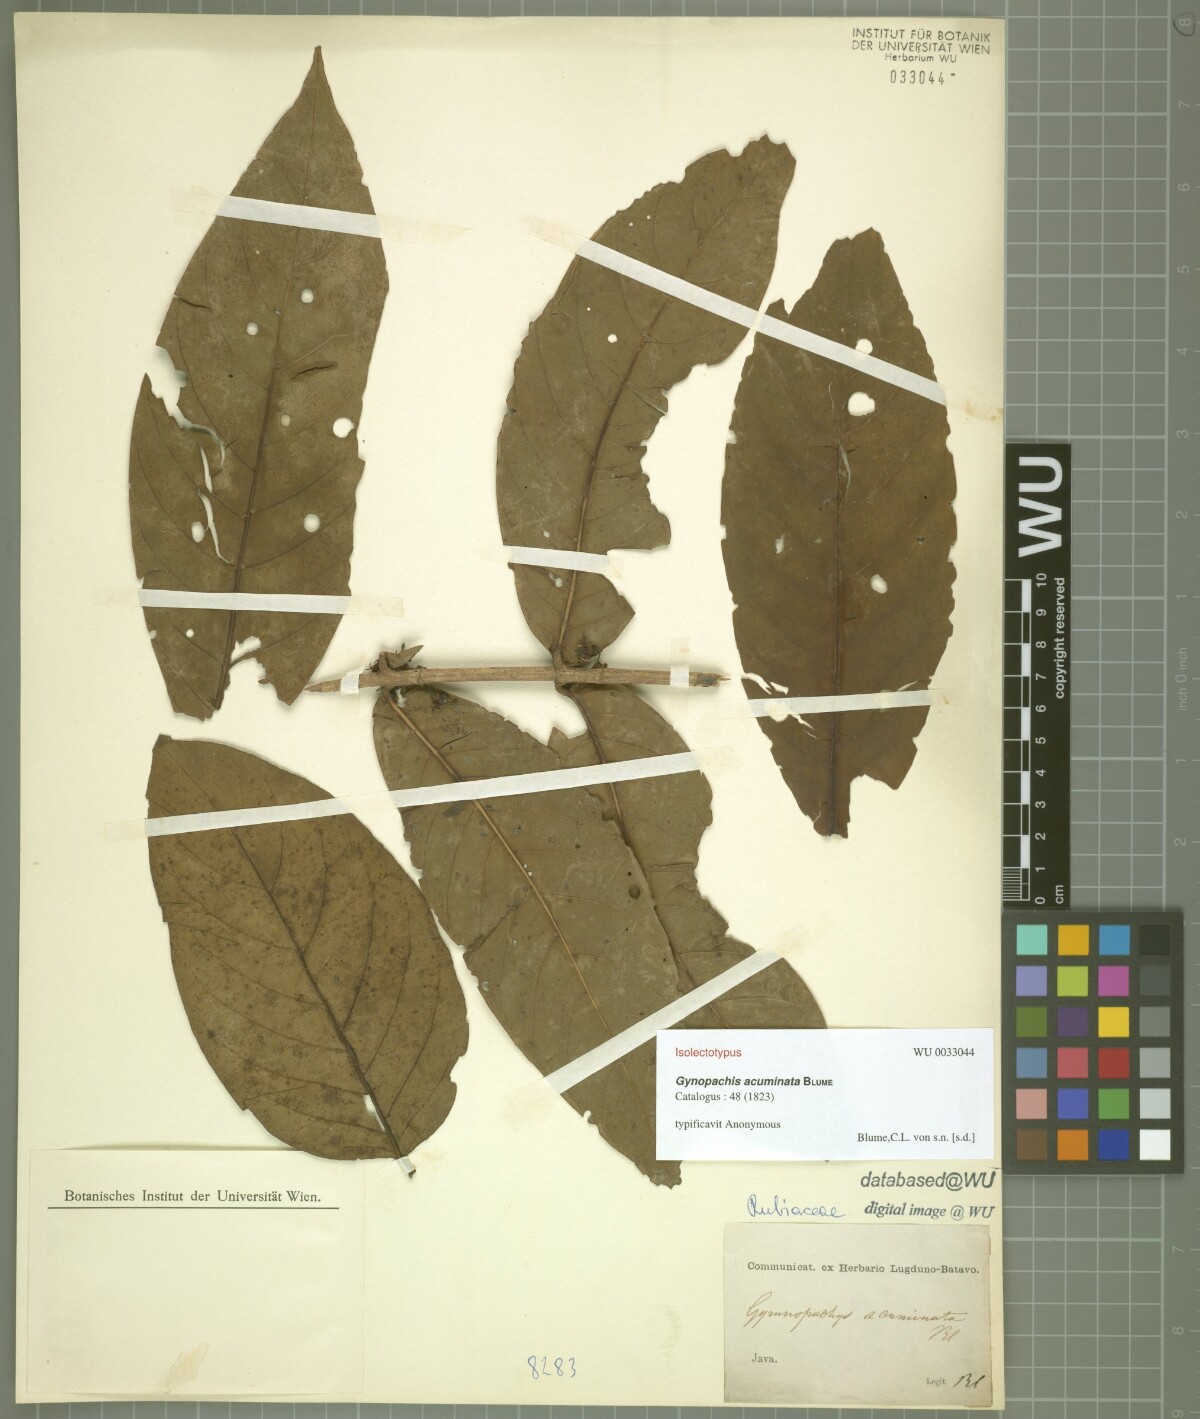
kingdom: Plantae
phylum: Tracheophyta
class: Magnoliopsida
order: Gentianales
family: Rubiaceae
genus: Aidia
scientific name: Aidia acuminata
